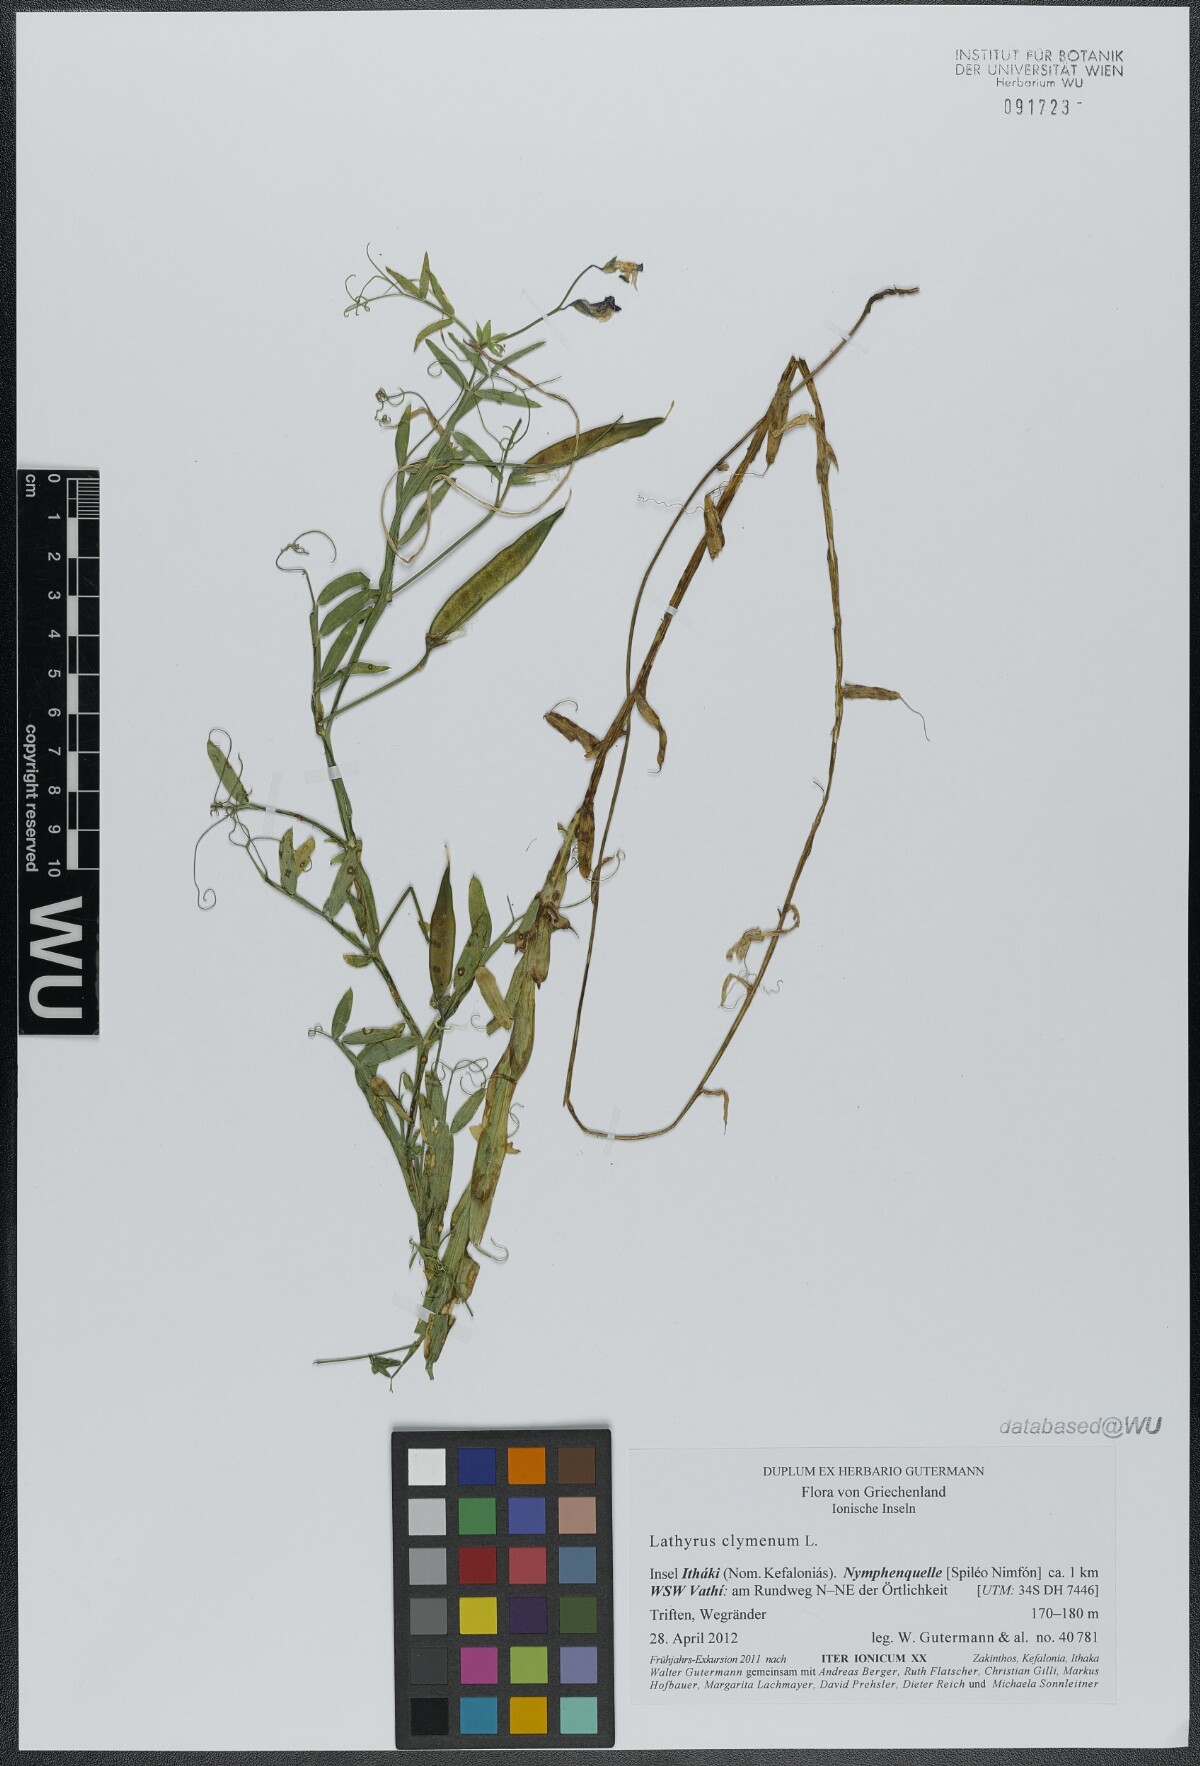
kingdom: Plantae
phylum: Tracheophyta
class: Magnoliopsida
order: Fabales
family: Fabaceae
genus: Lathyrus
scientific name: Lathyrus clymenum
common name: Spanish vetchling
